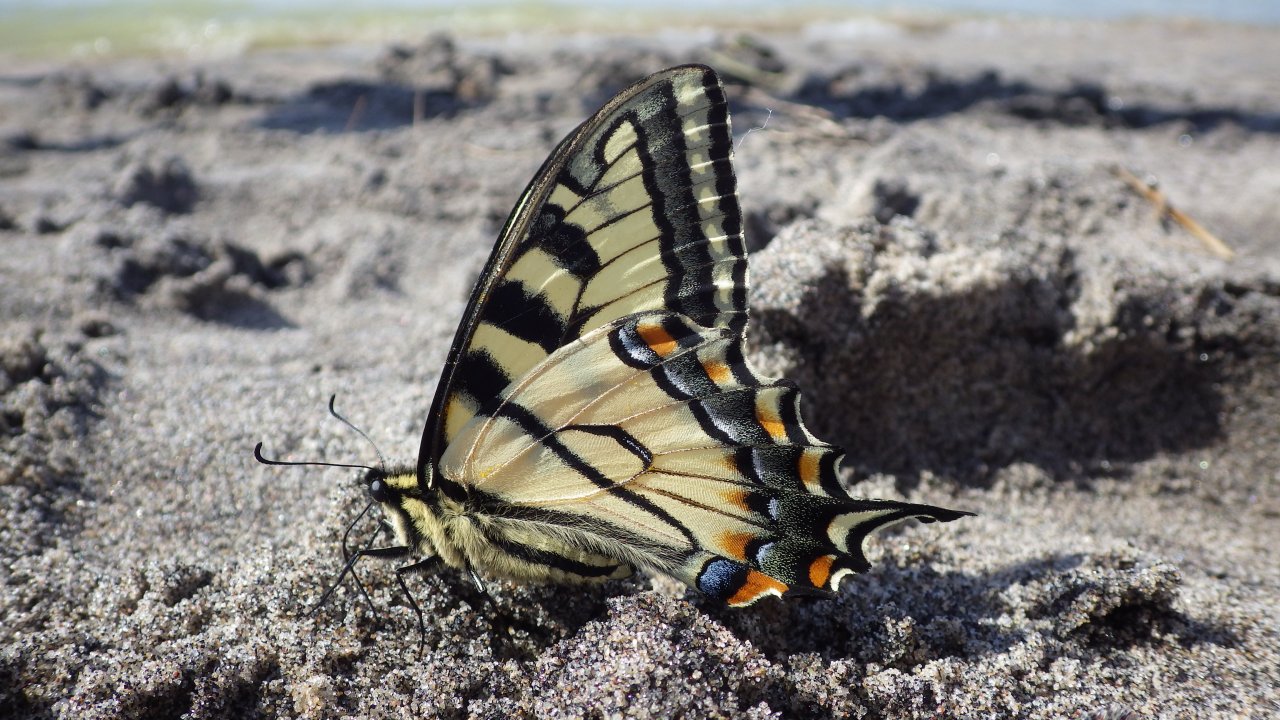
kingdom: Animalia
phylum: Arthropoda
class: Insecta
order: Lepidoptera
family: Papilionidae
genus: Pterourus
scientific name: Pterourus glaucus
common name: Eastern Tiger Swallowtail
